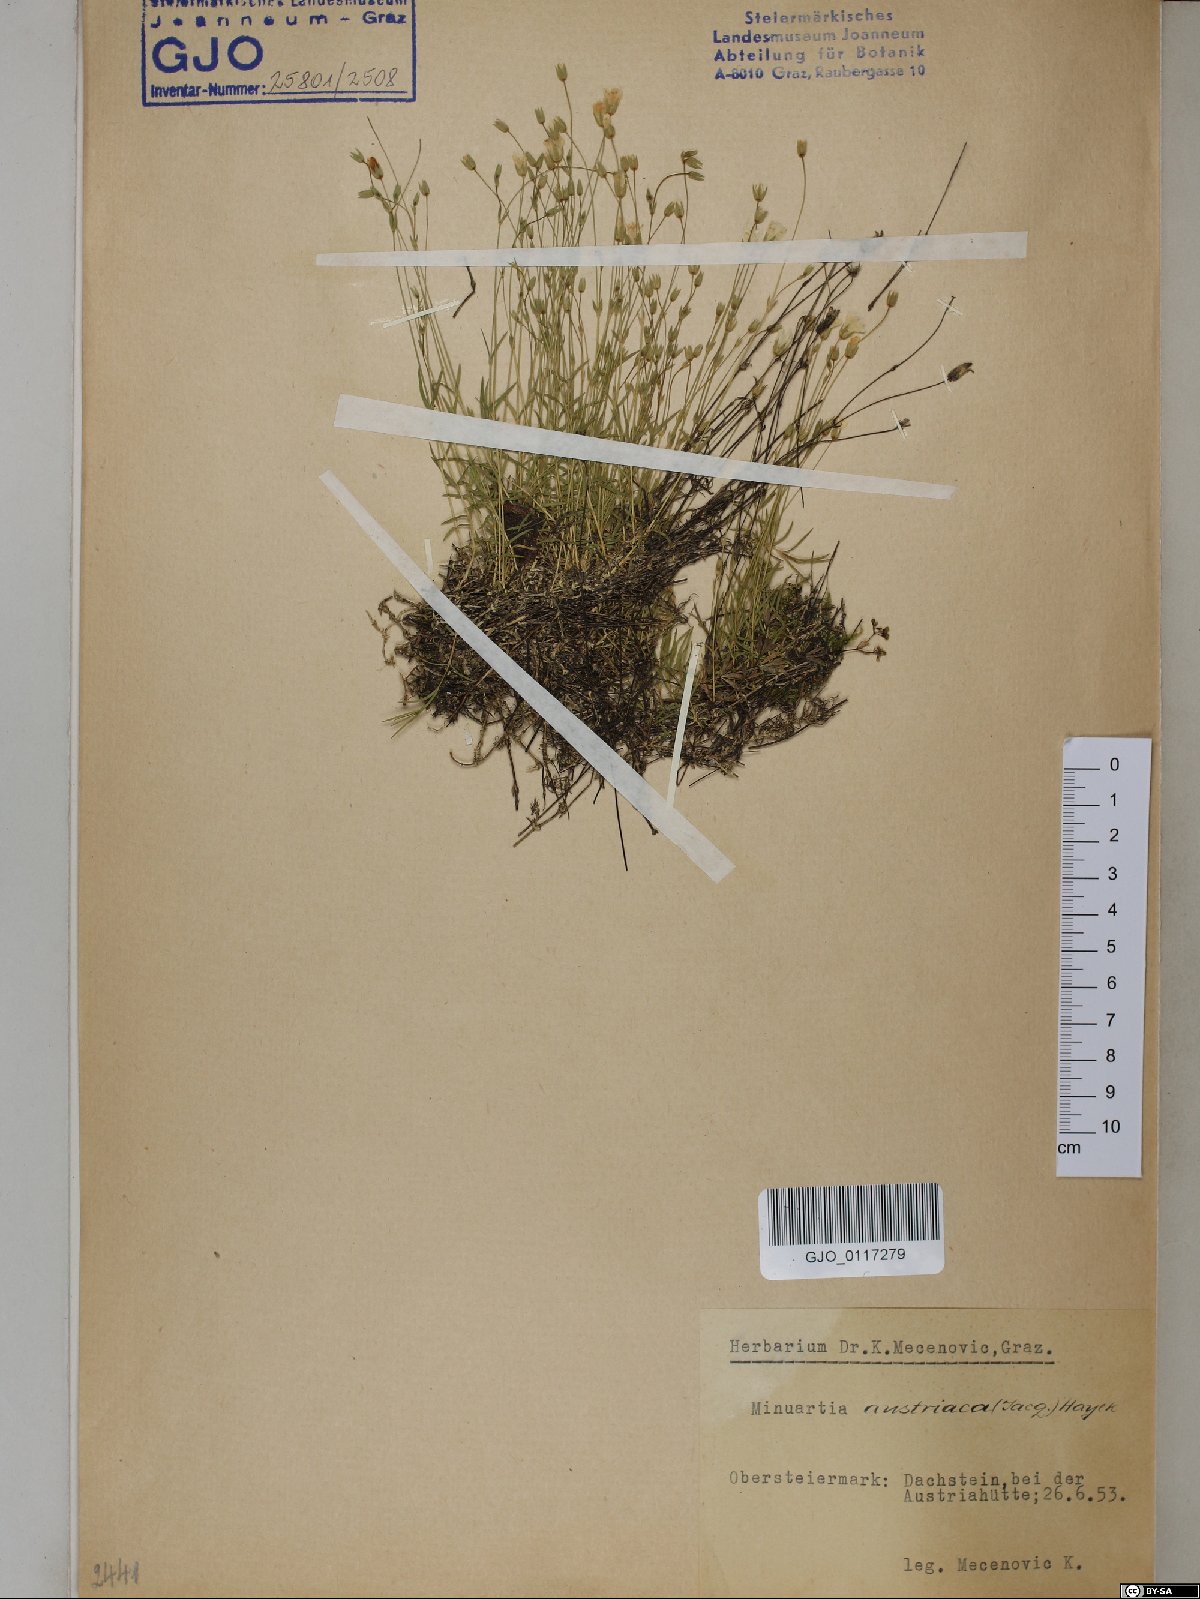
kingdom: Plantae
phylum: Tracheophyta
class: Magnoliopsida
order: Caryophyllales
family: Caryophyllaceae
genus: Sabulina
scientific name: Sabulina austriaca
